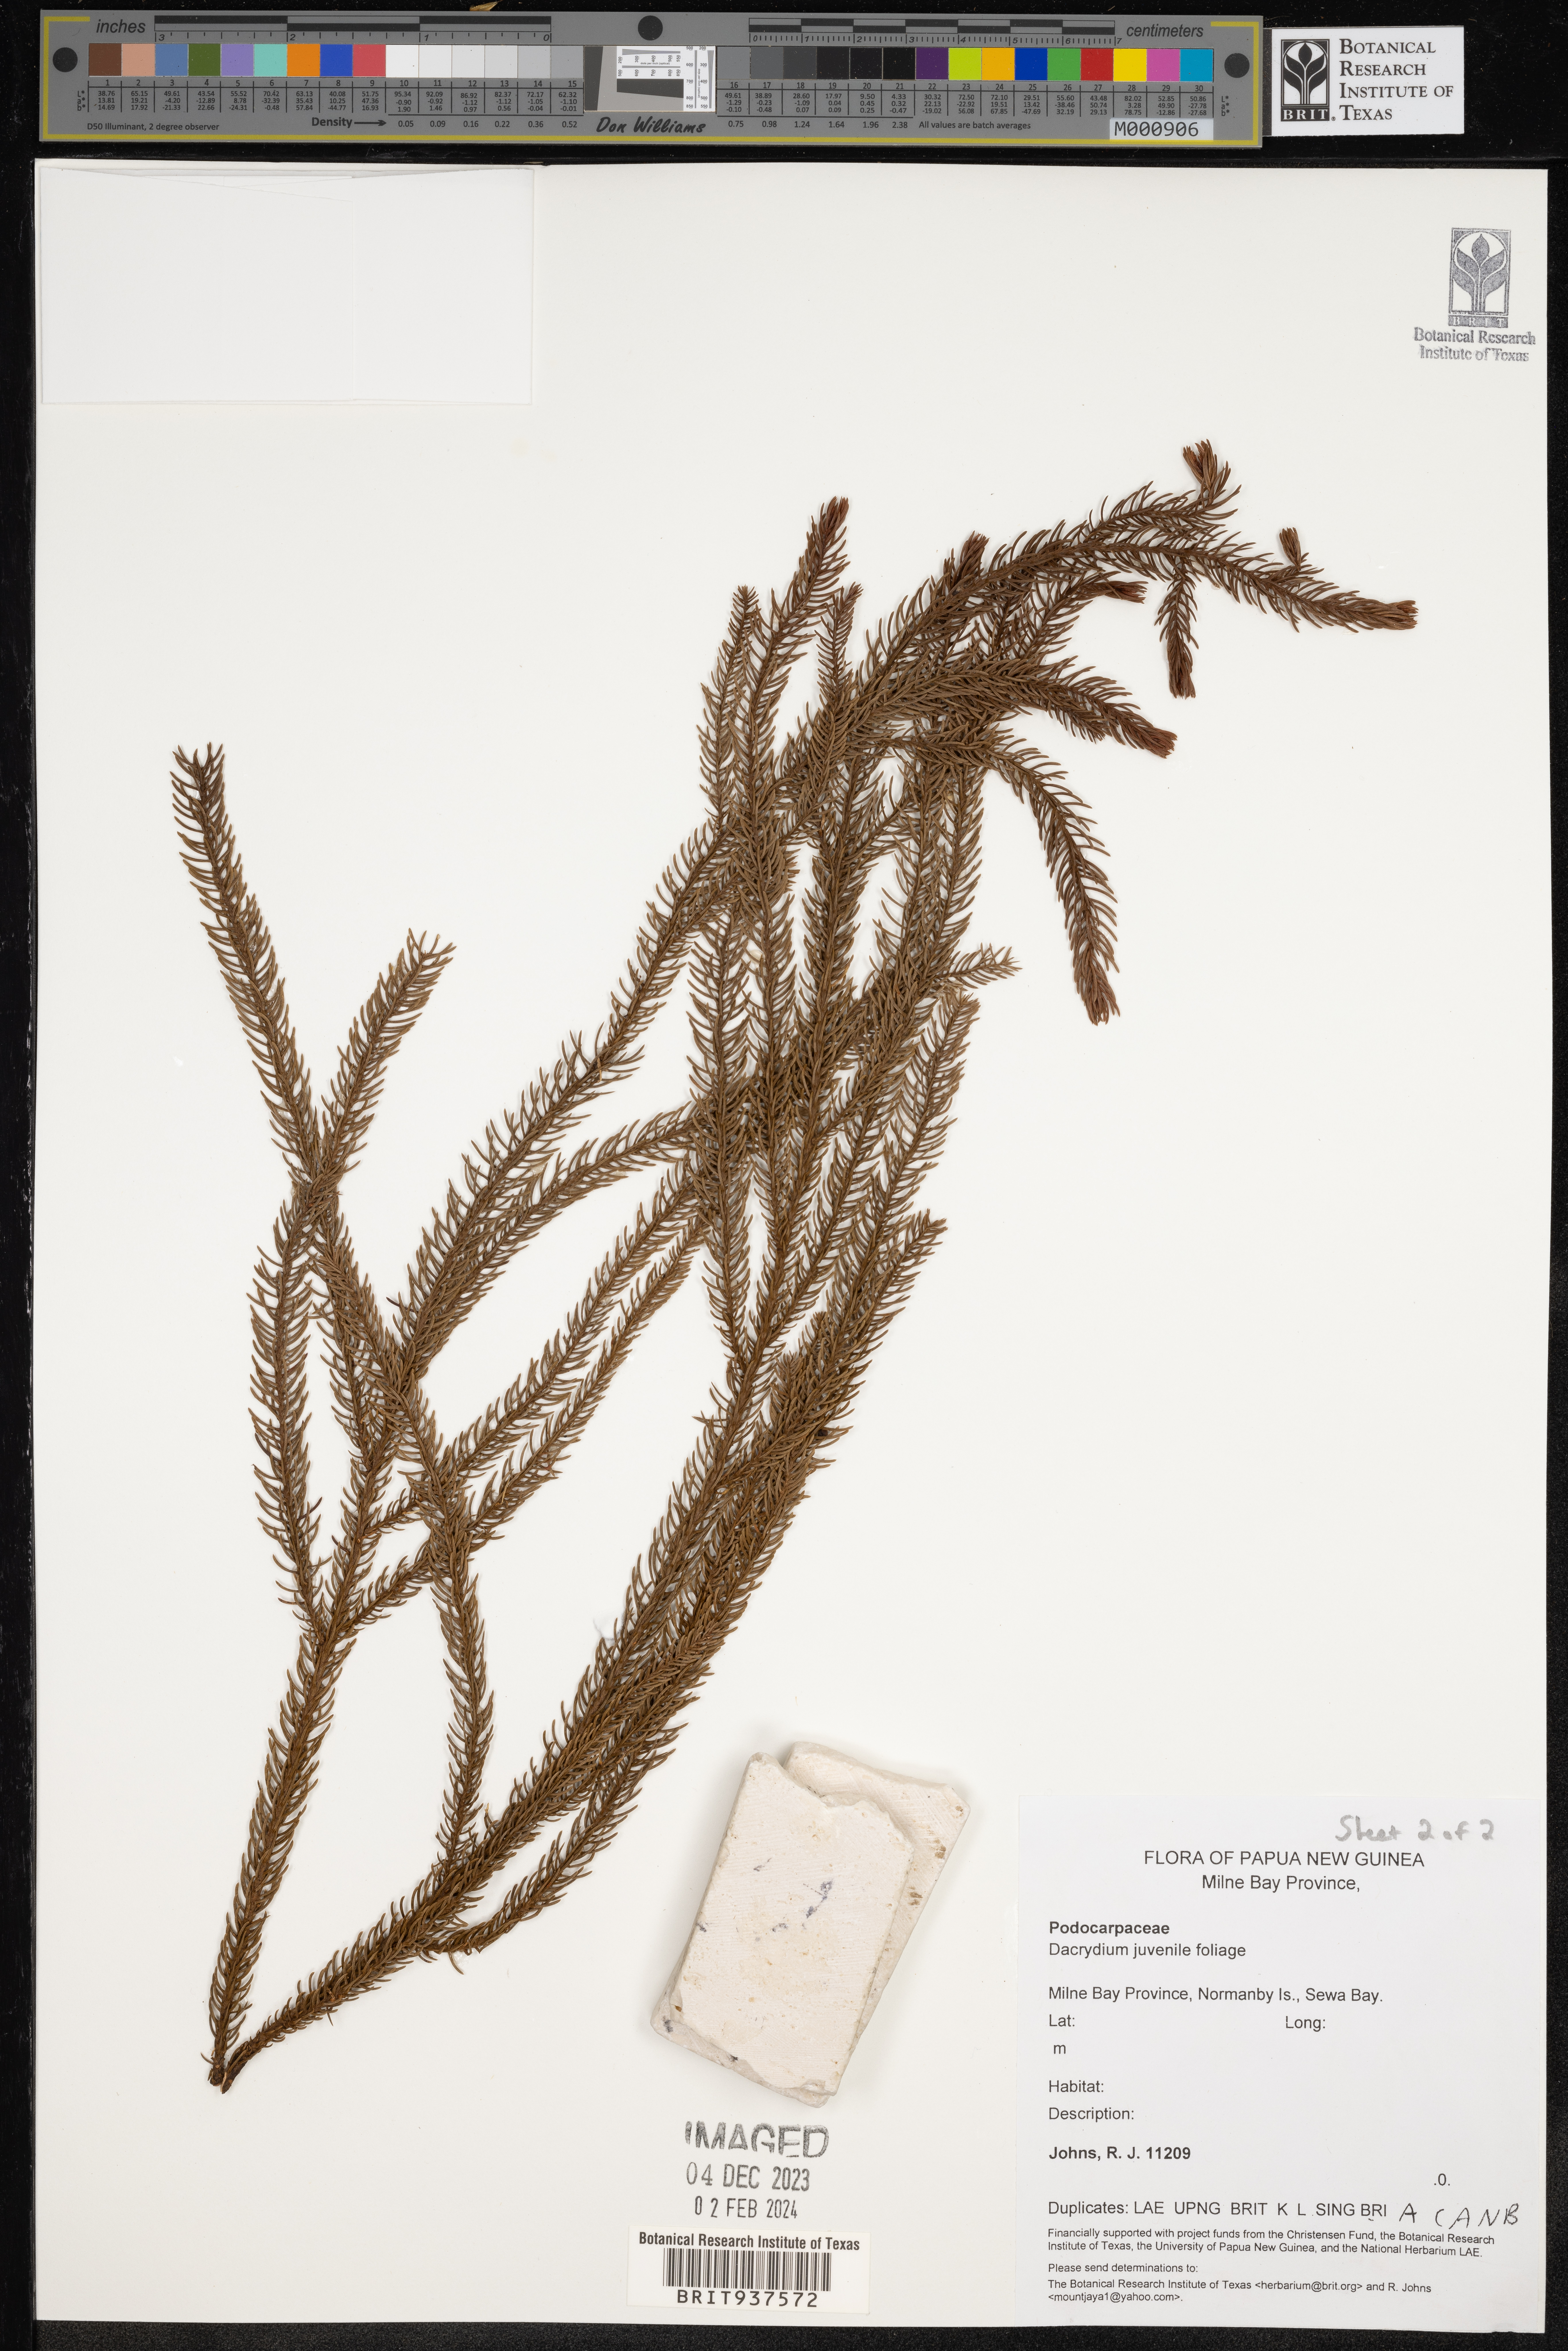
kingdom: Plantae
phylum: Tracheophyta
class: Pinopsida
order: Pinales
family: Podocarpaceae
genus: Dacrydium
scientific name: Dacrydium
